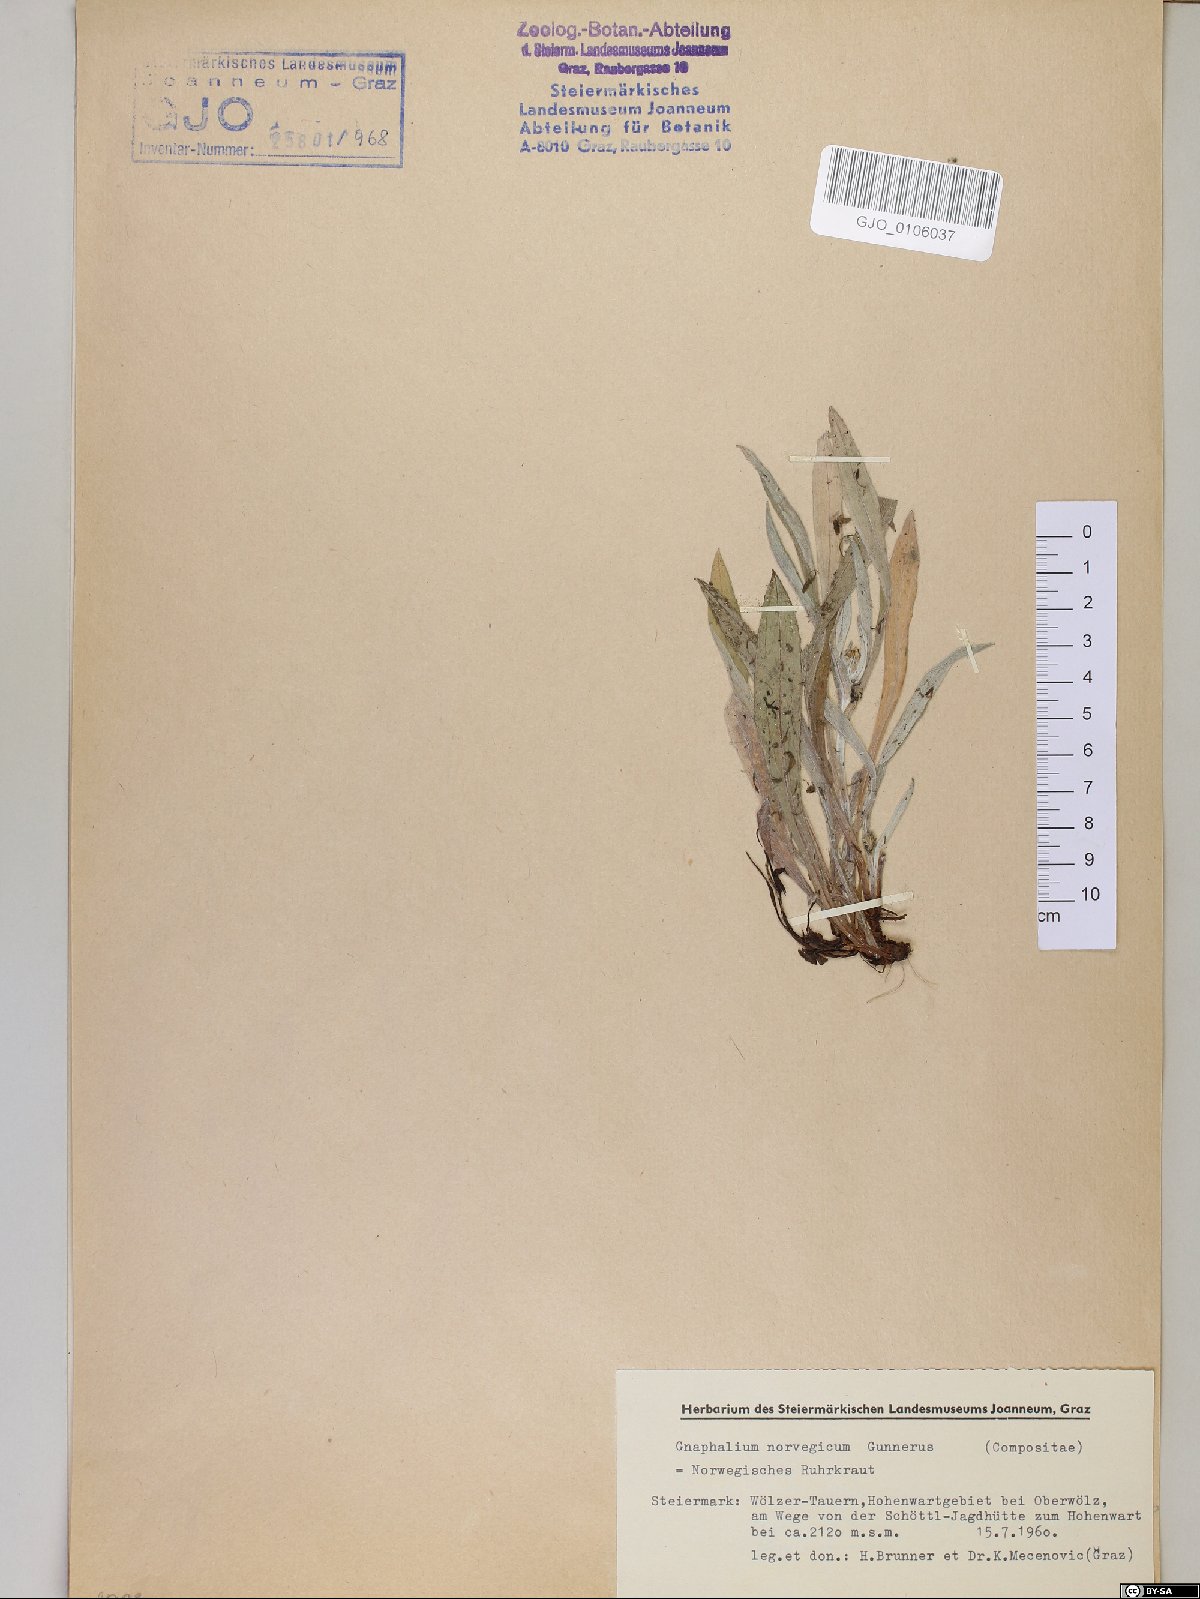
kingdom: Plantae
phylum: Tracheophyta
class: Magnoliopsida
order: Asterales
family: Asteraceae
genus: Omalotheca
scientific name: Omalotheca norvegica
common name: Norwegian arctic-cudweed
